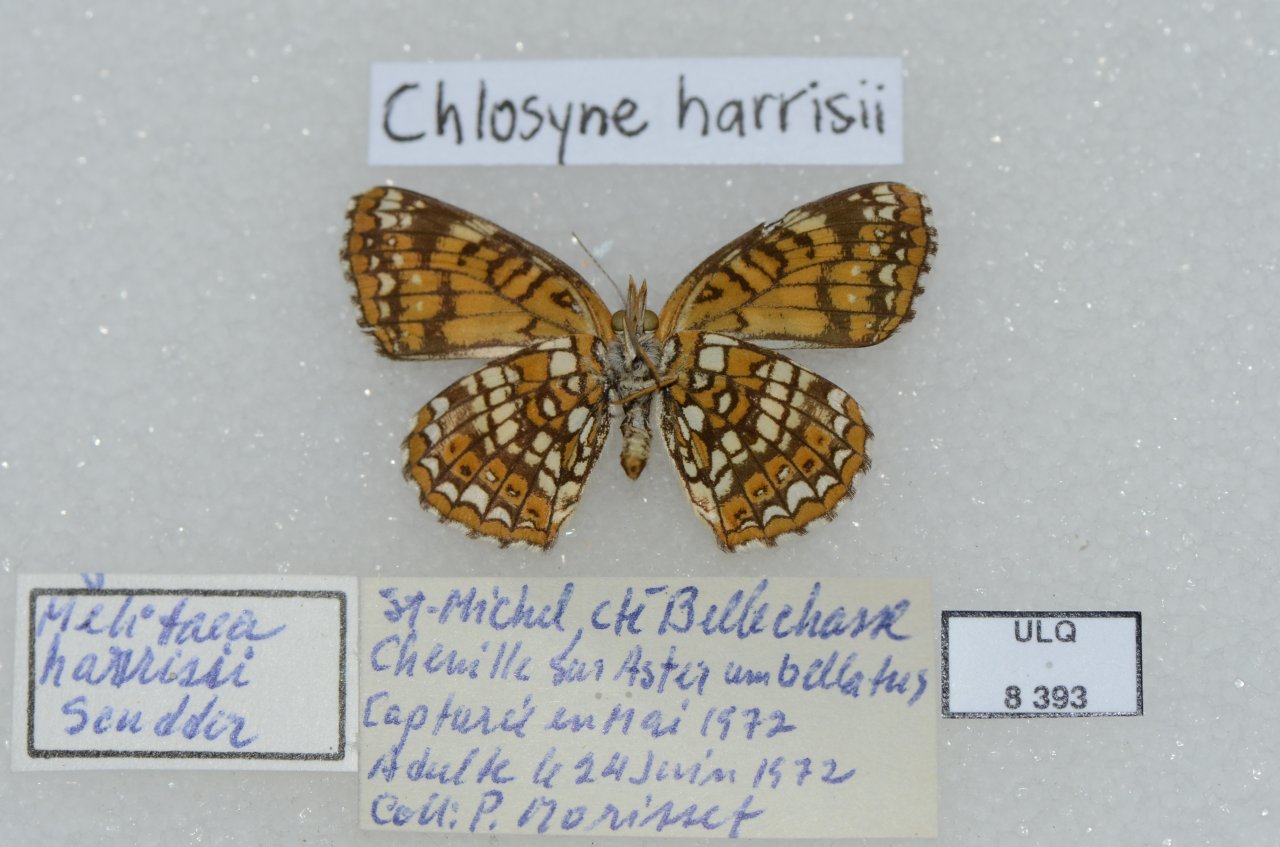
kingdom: Animalia
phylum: Arthropoda
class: Insecta
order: Lepidoptera
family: Nymphalidae
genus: Chlosyne
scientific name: Chlosyne harrisii
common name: Harris's Checkerspot
